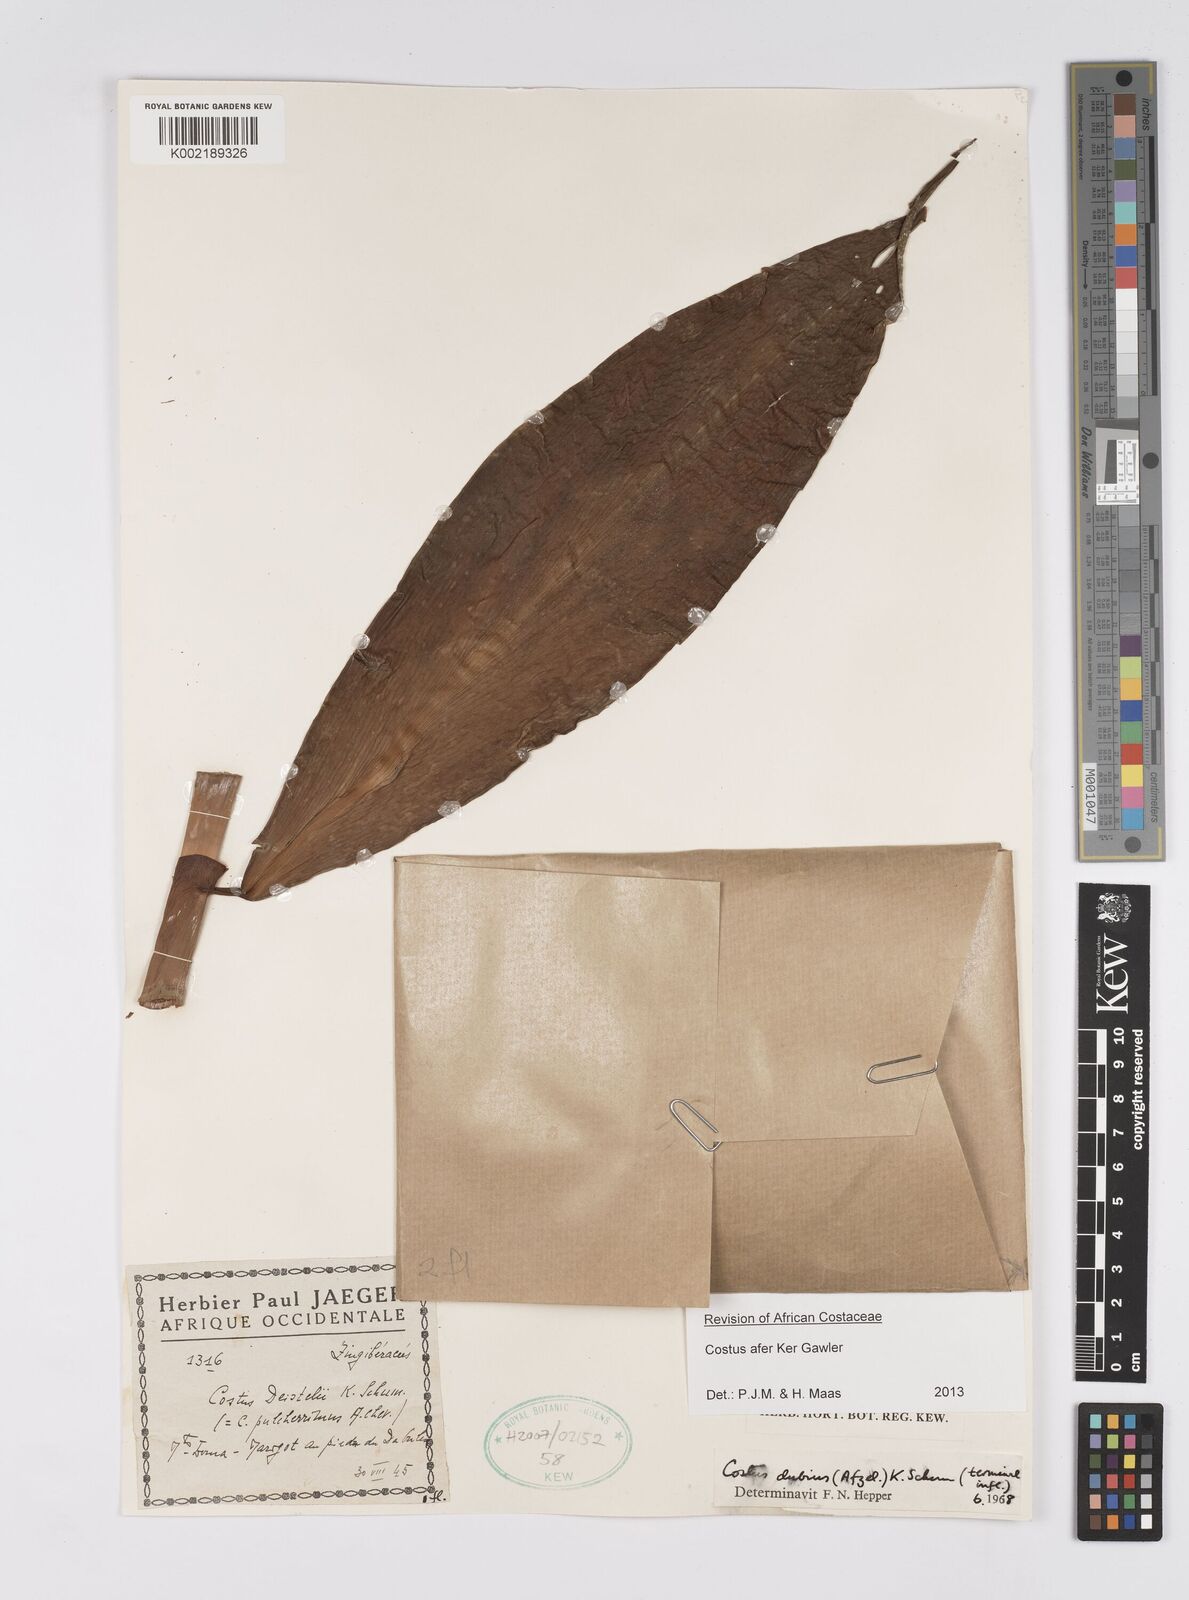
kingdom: Plantae
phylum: Tracheophyta
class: Liliopsida
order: Zingiberales
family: Costaceae
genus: Costus
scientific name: Costus afer
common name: Spiral-ginger
